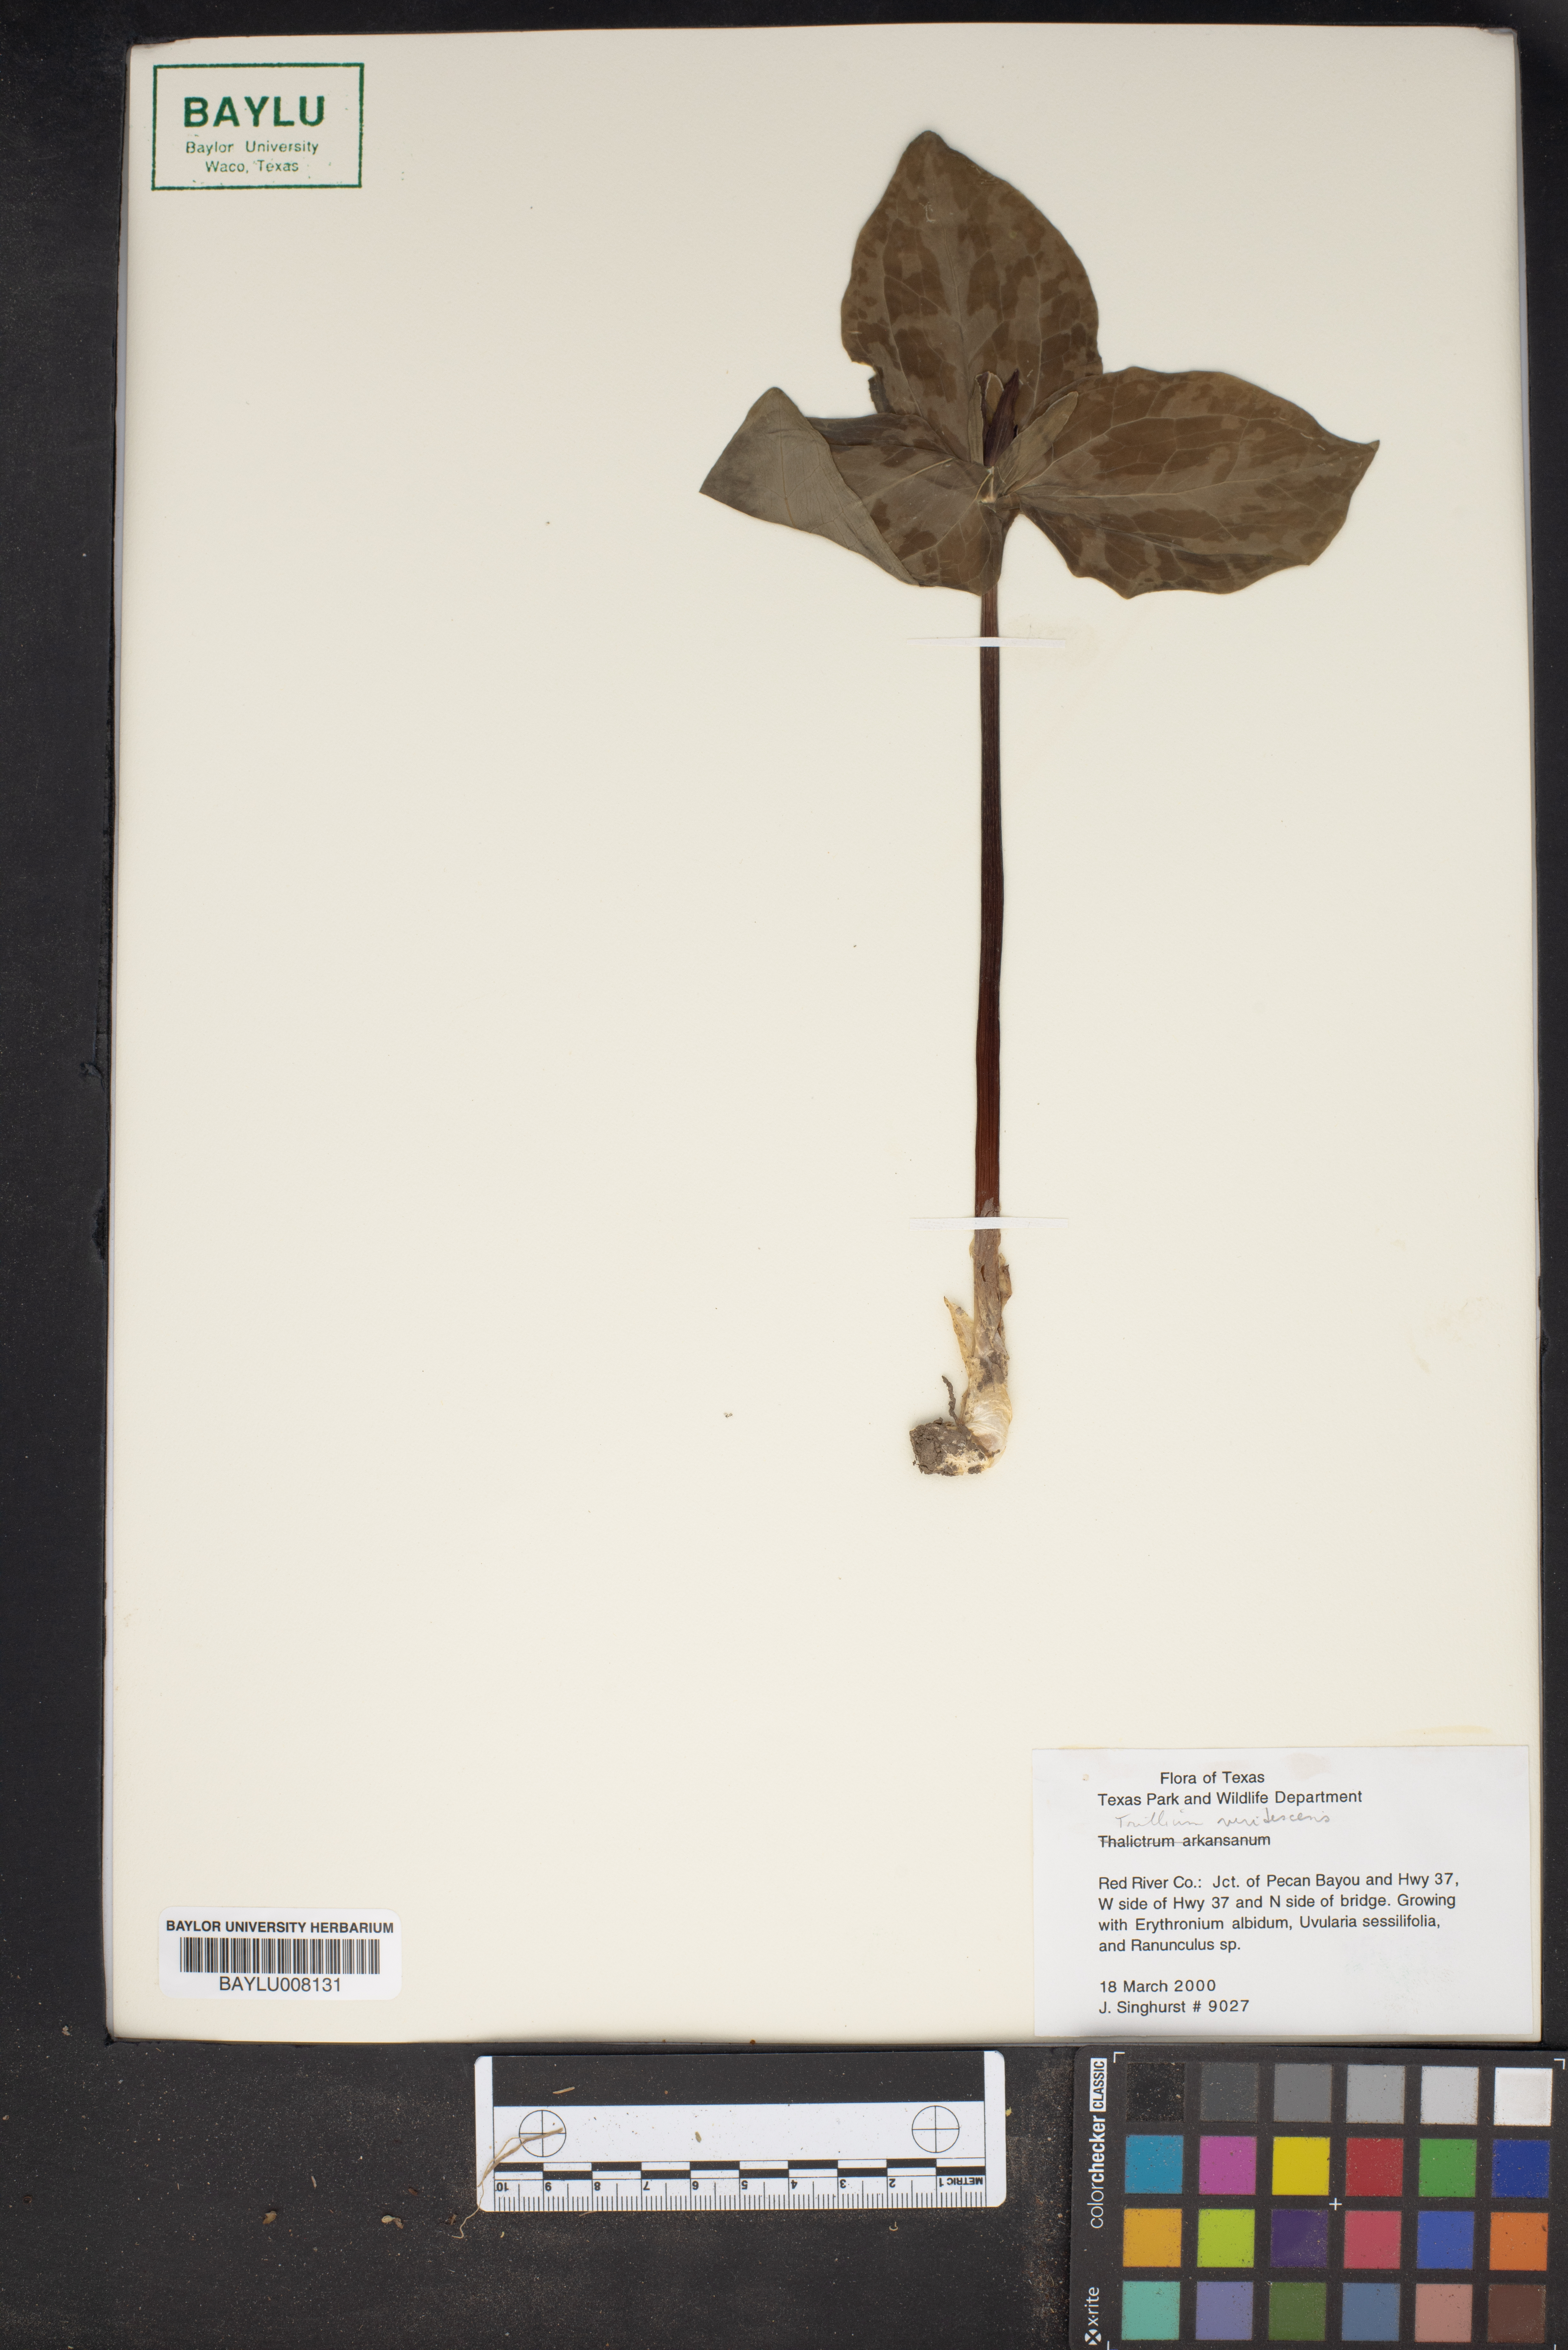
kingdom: Plantae
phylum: Tracheophyta
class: Liliopsida
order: Liliales
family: Melanthiaceae
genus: Trillium
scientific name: Trillium viridescens
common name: Ozark green trillium
